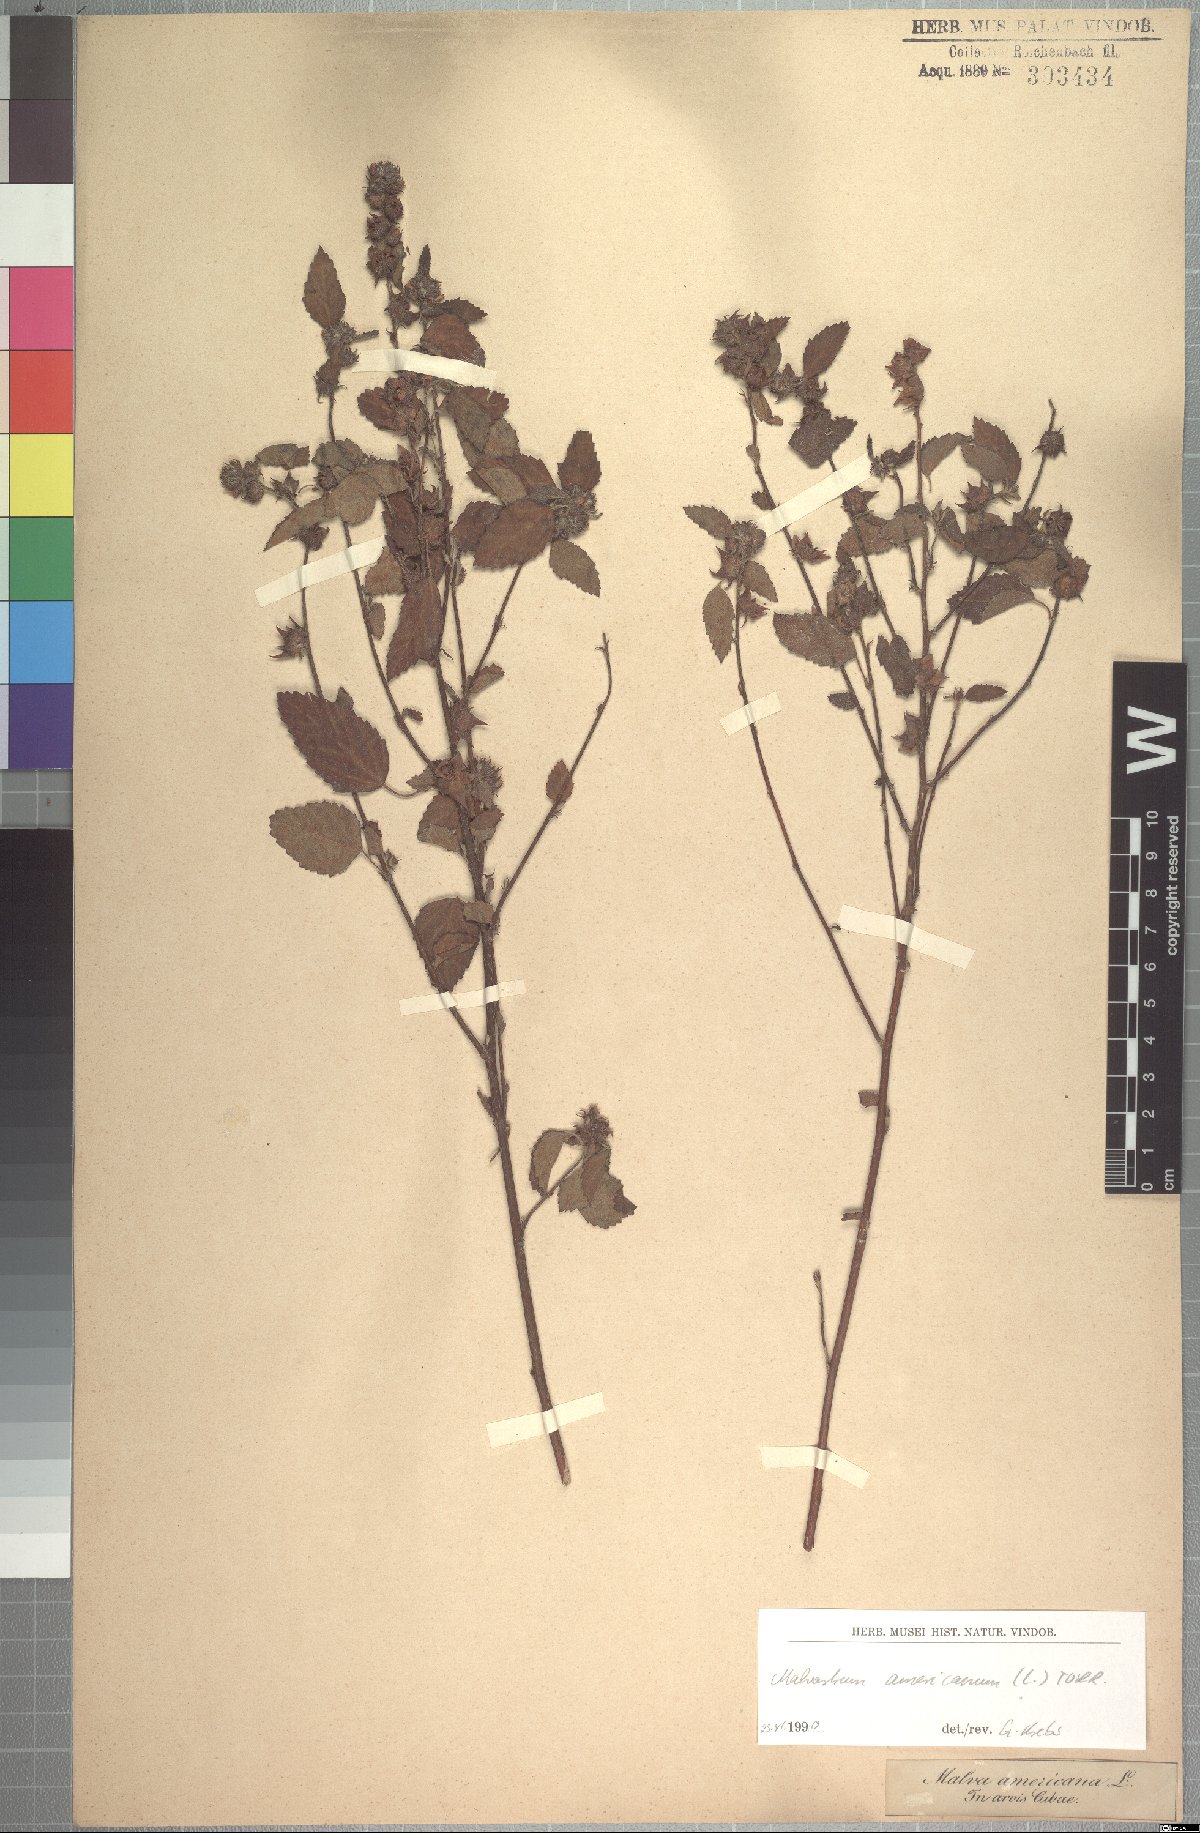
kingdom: Plantae
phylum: Tracheophyta
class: Magnoliopsida
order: Malvales
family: Malvaceae
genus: Malvastrum
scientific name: Malvastrum americanum
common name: Spiked malvastrum
